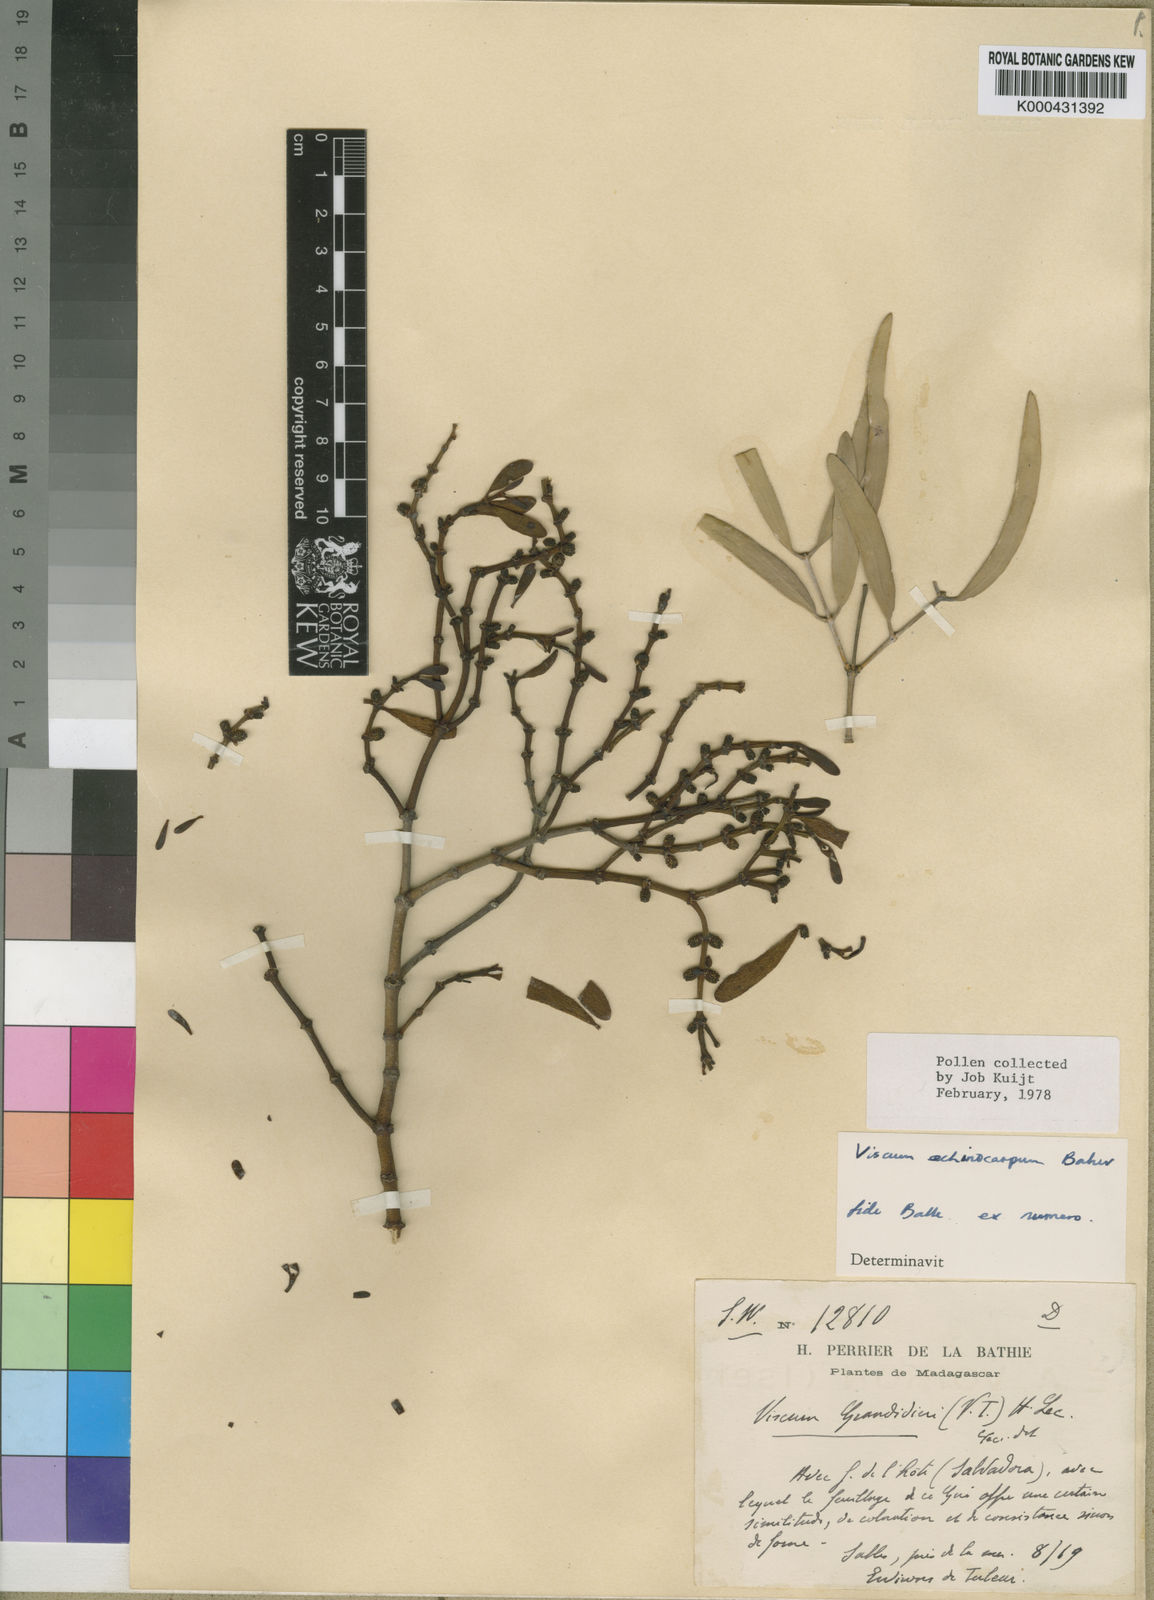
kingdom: Plantae
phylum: Tracheophyta
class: Magnoliopsida
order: Santalales
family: Viscaceae
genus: Viscum
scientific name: Viscum echinocarpum
